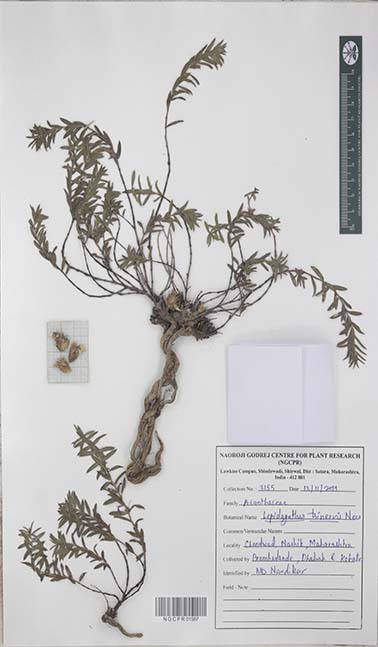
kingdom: Plantae
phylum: Tracheophyta
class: Magnoliopsida
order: Lamiales
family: Acanthaceae
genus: Lepidagathis
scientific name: Lepidagathis trinervis
